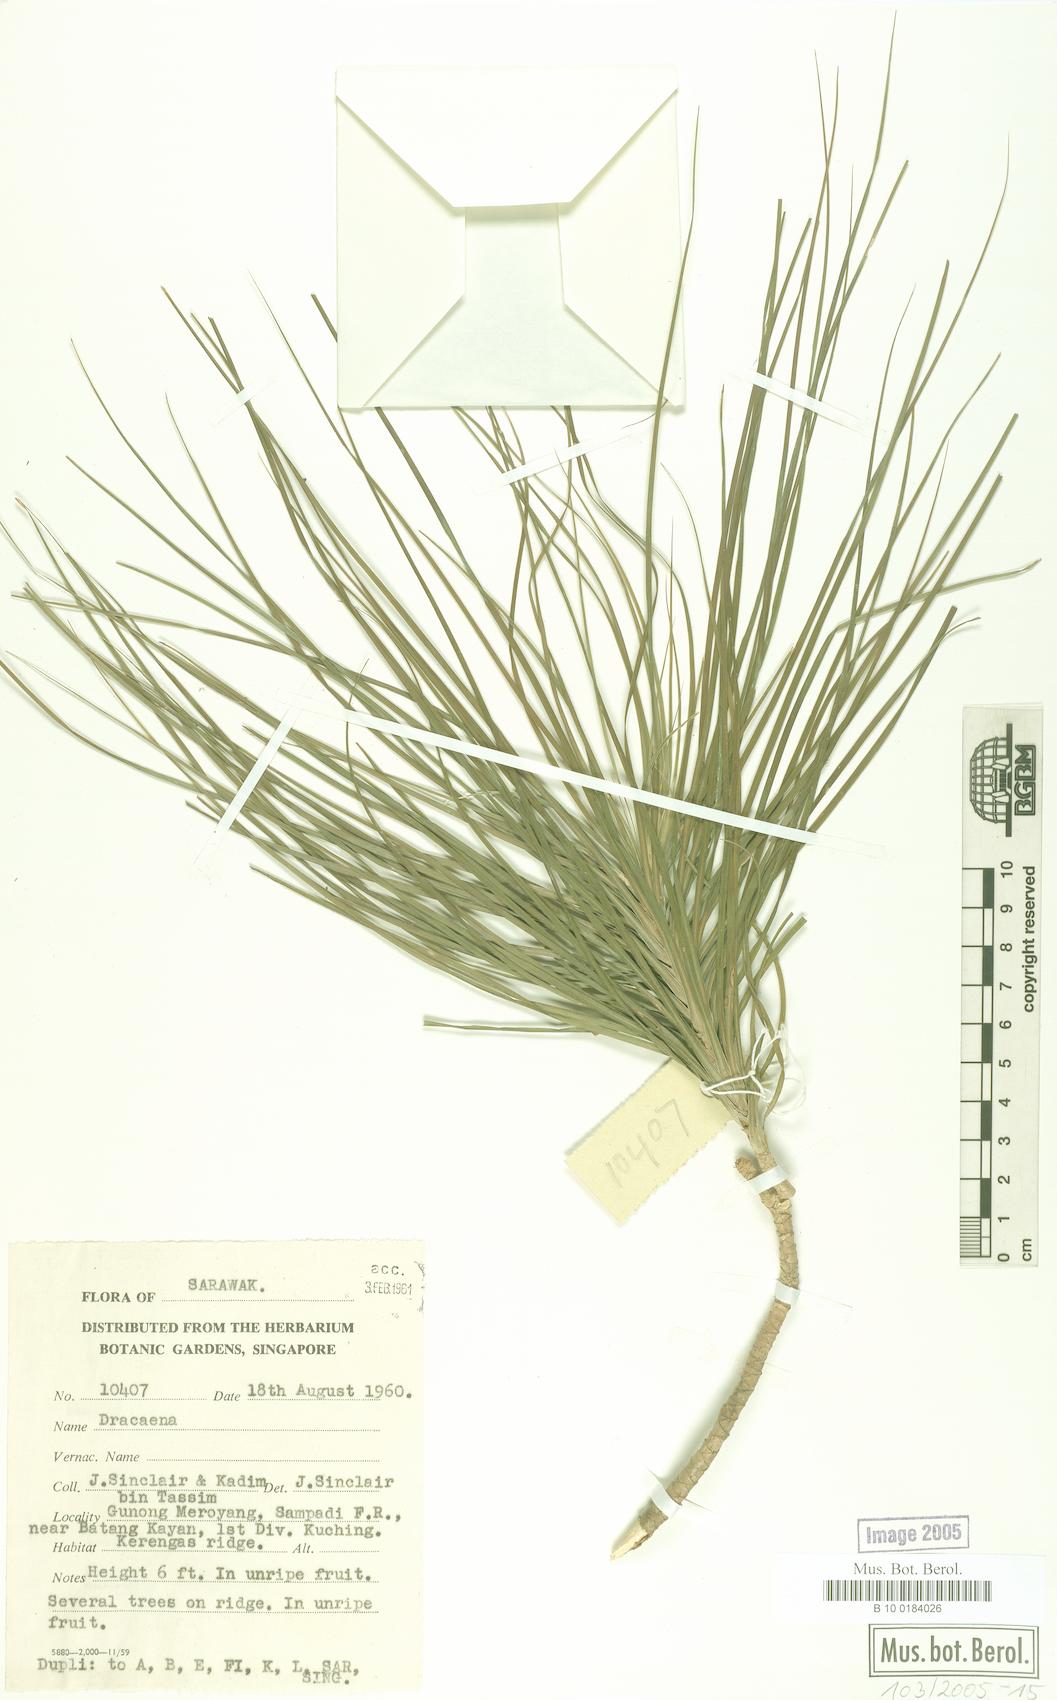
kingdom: Plantae
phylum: Tracheophyta
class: Liliopsida
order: Asparagales
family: Asparagaceae
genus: Dracaena
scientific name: Dracaena
